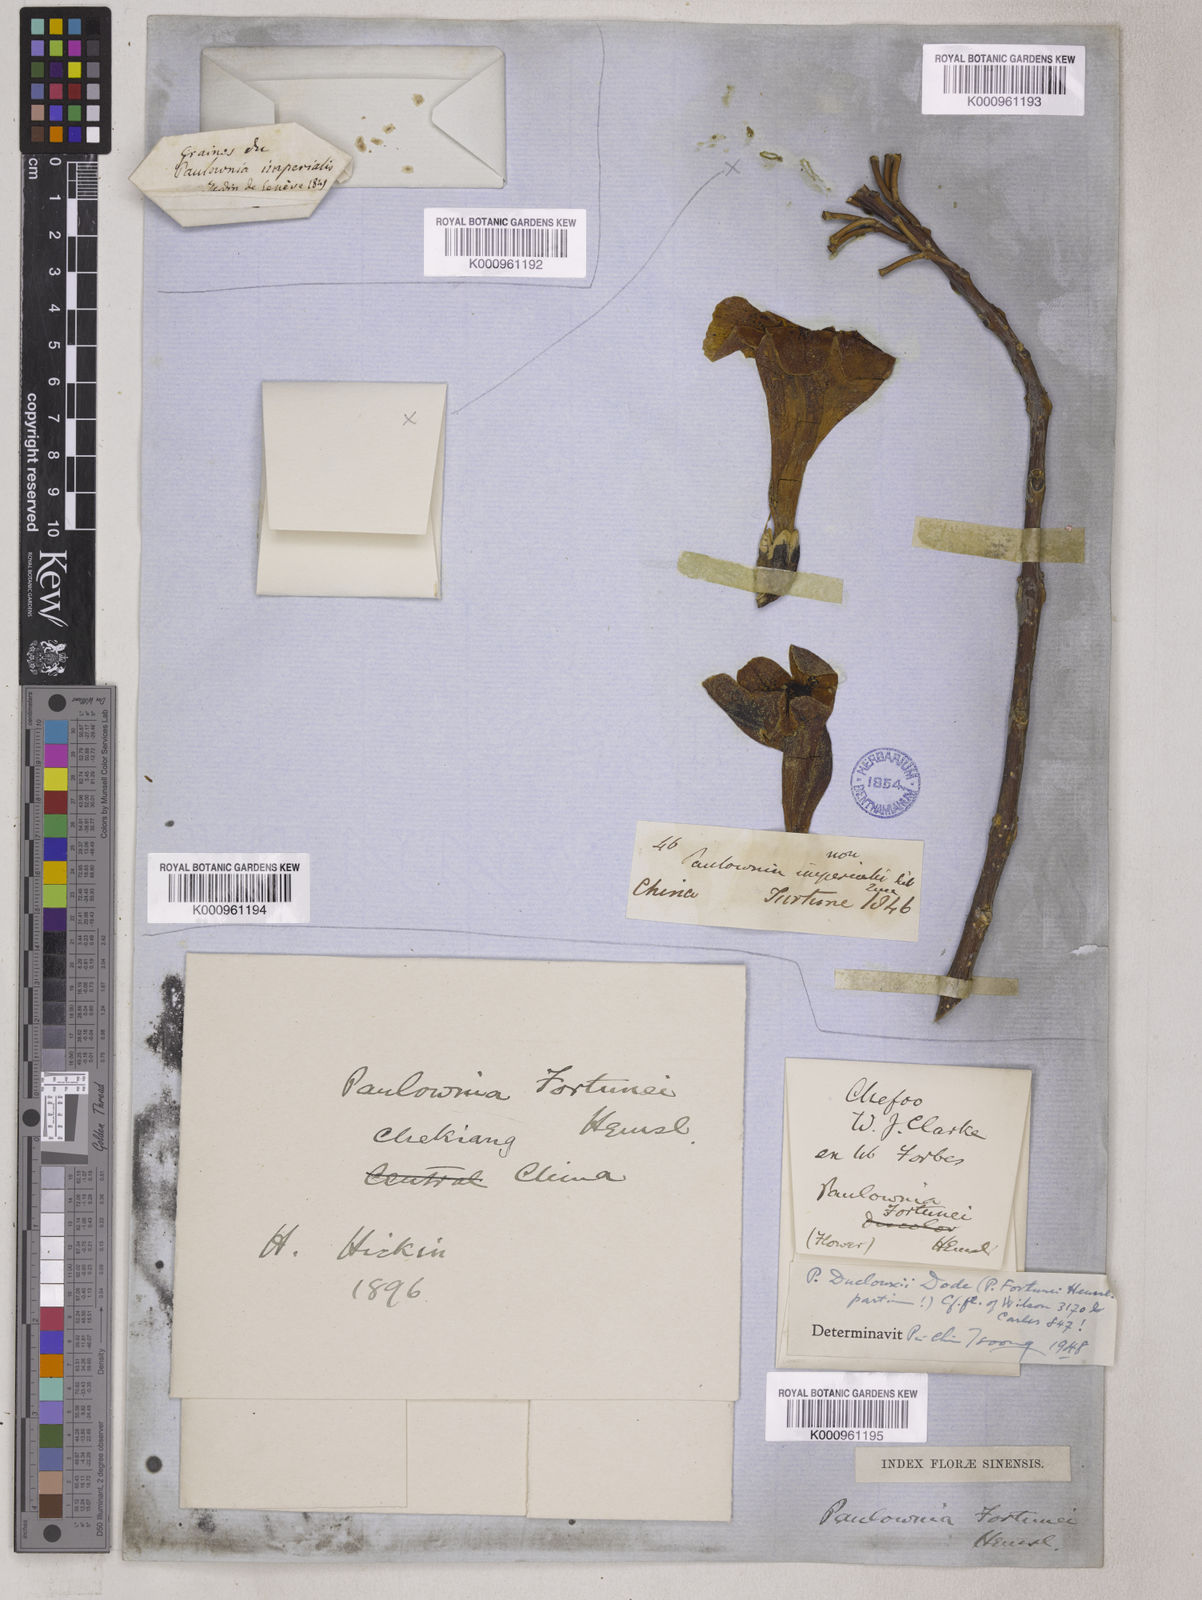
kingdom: Plantae
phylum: Tracheophyta
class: Magnoliopsida
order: Lamiales
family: Paulowniaceae
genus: Paulownia
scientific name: Paulownia fortunei
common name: Dragontree
